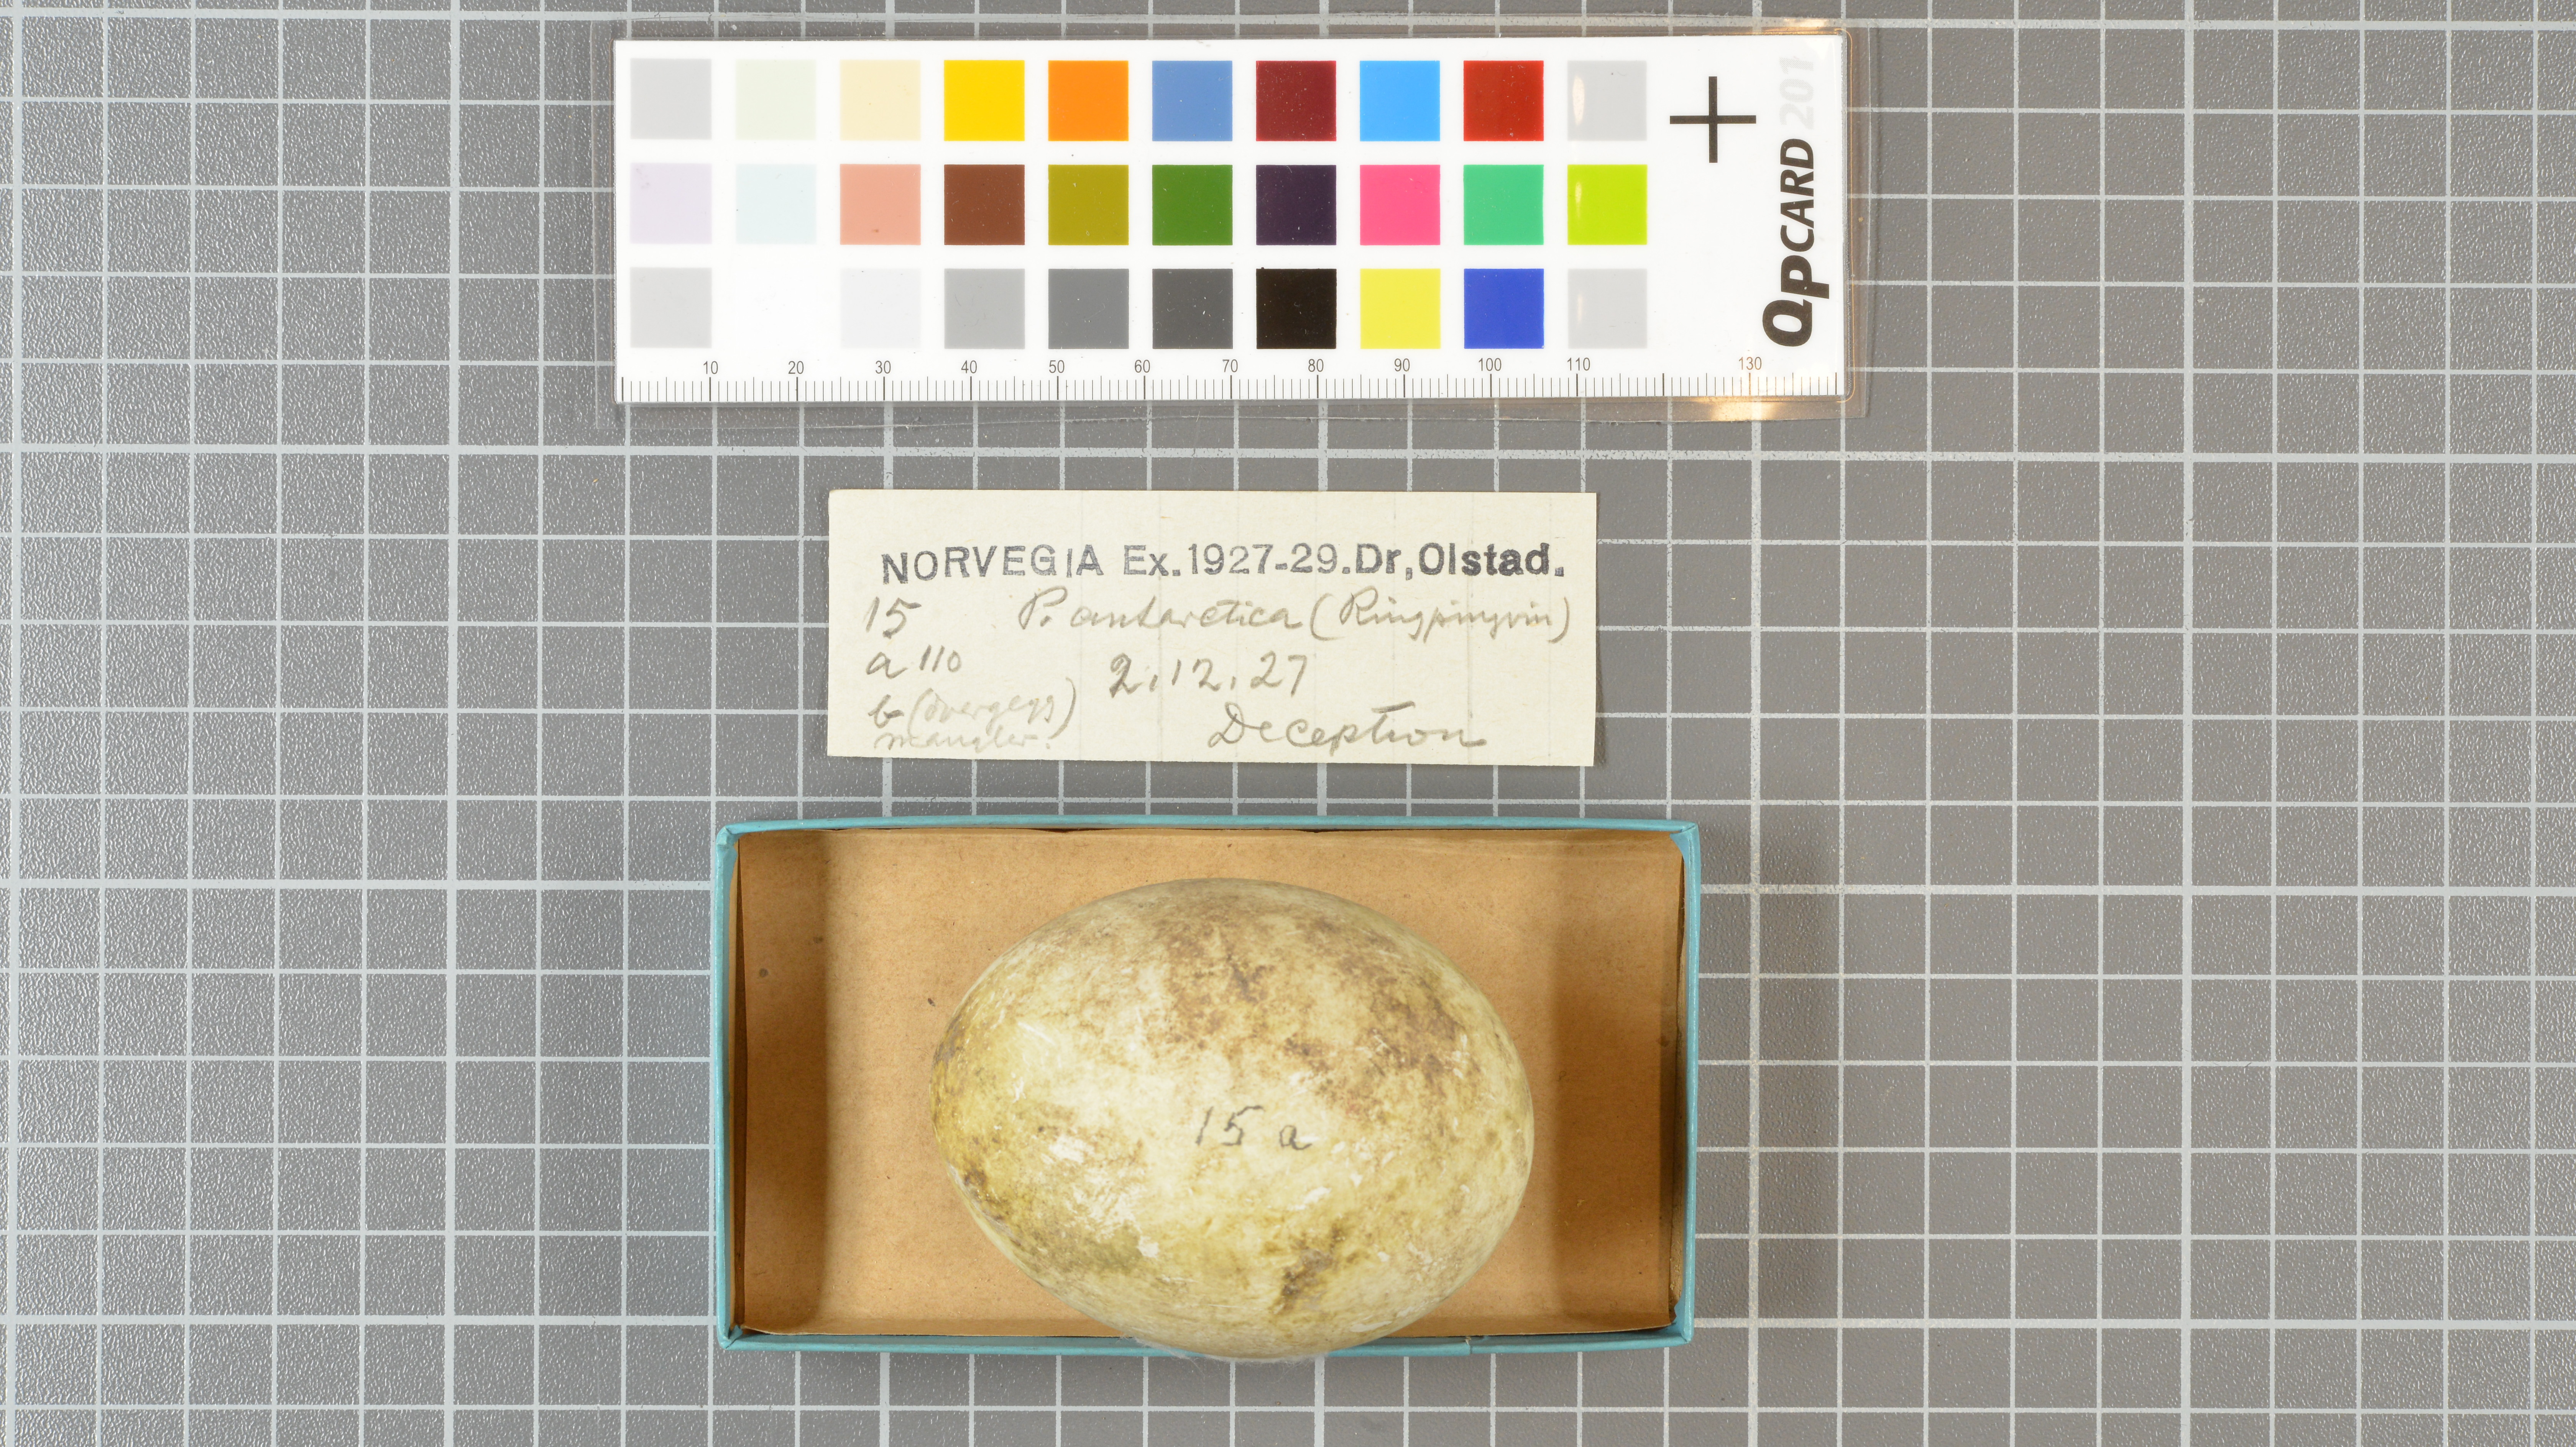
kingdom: Animalia
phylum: Chordata
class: Aves
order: Sphenisciformes
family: Spheniscidae
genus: Pygoscelis
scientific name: Pygoscelis antarcticus
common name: Chinstrap penguin
